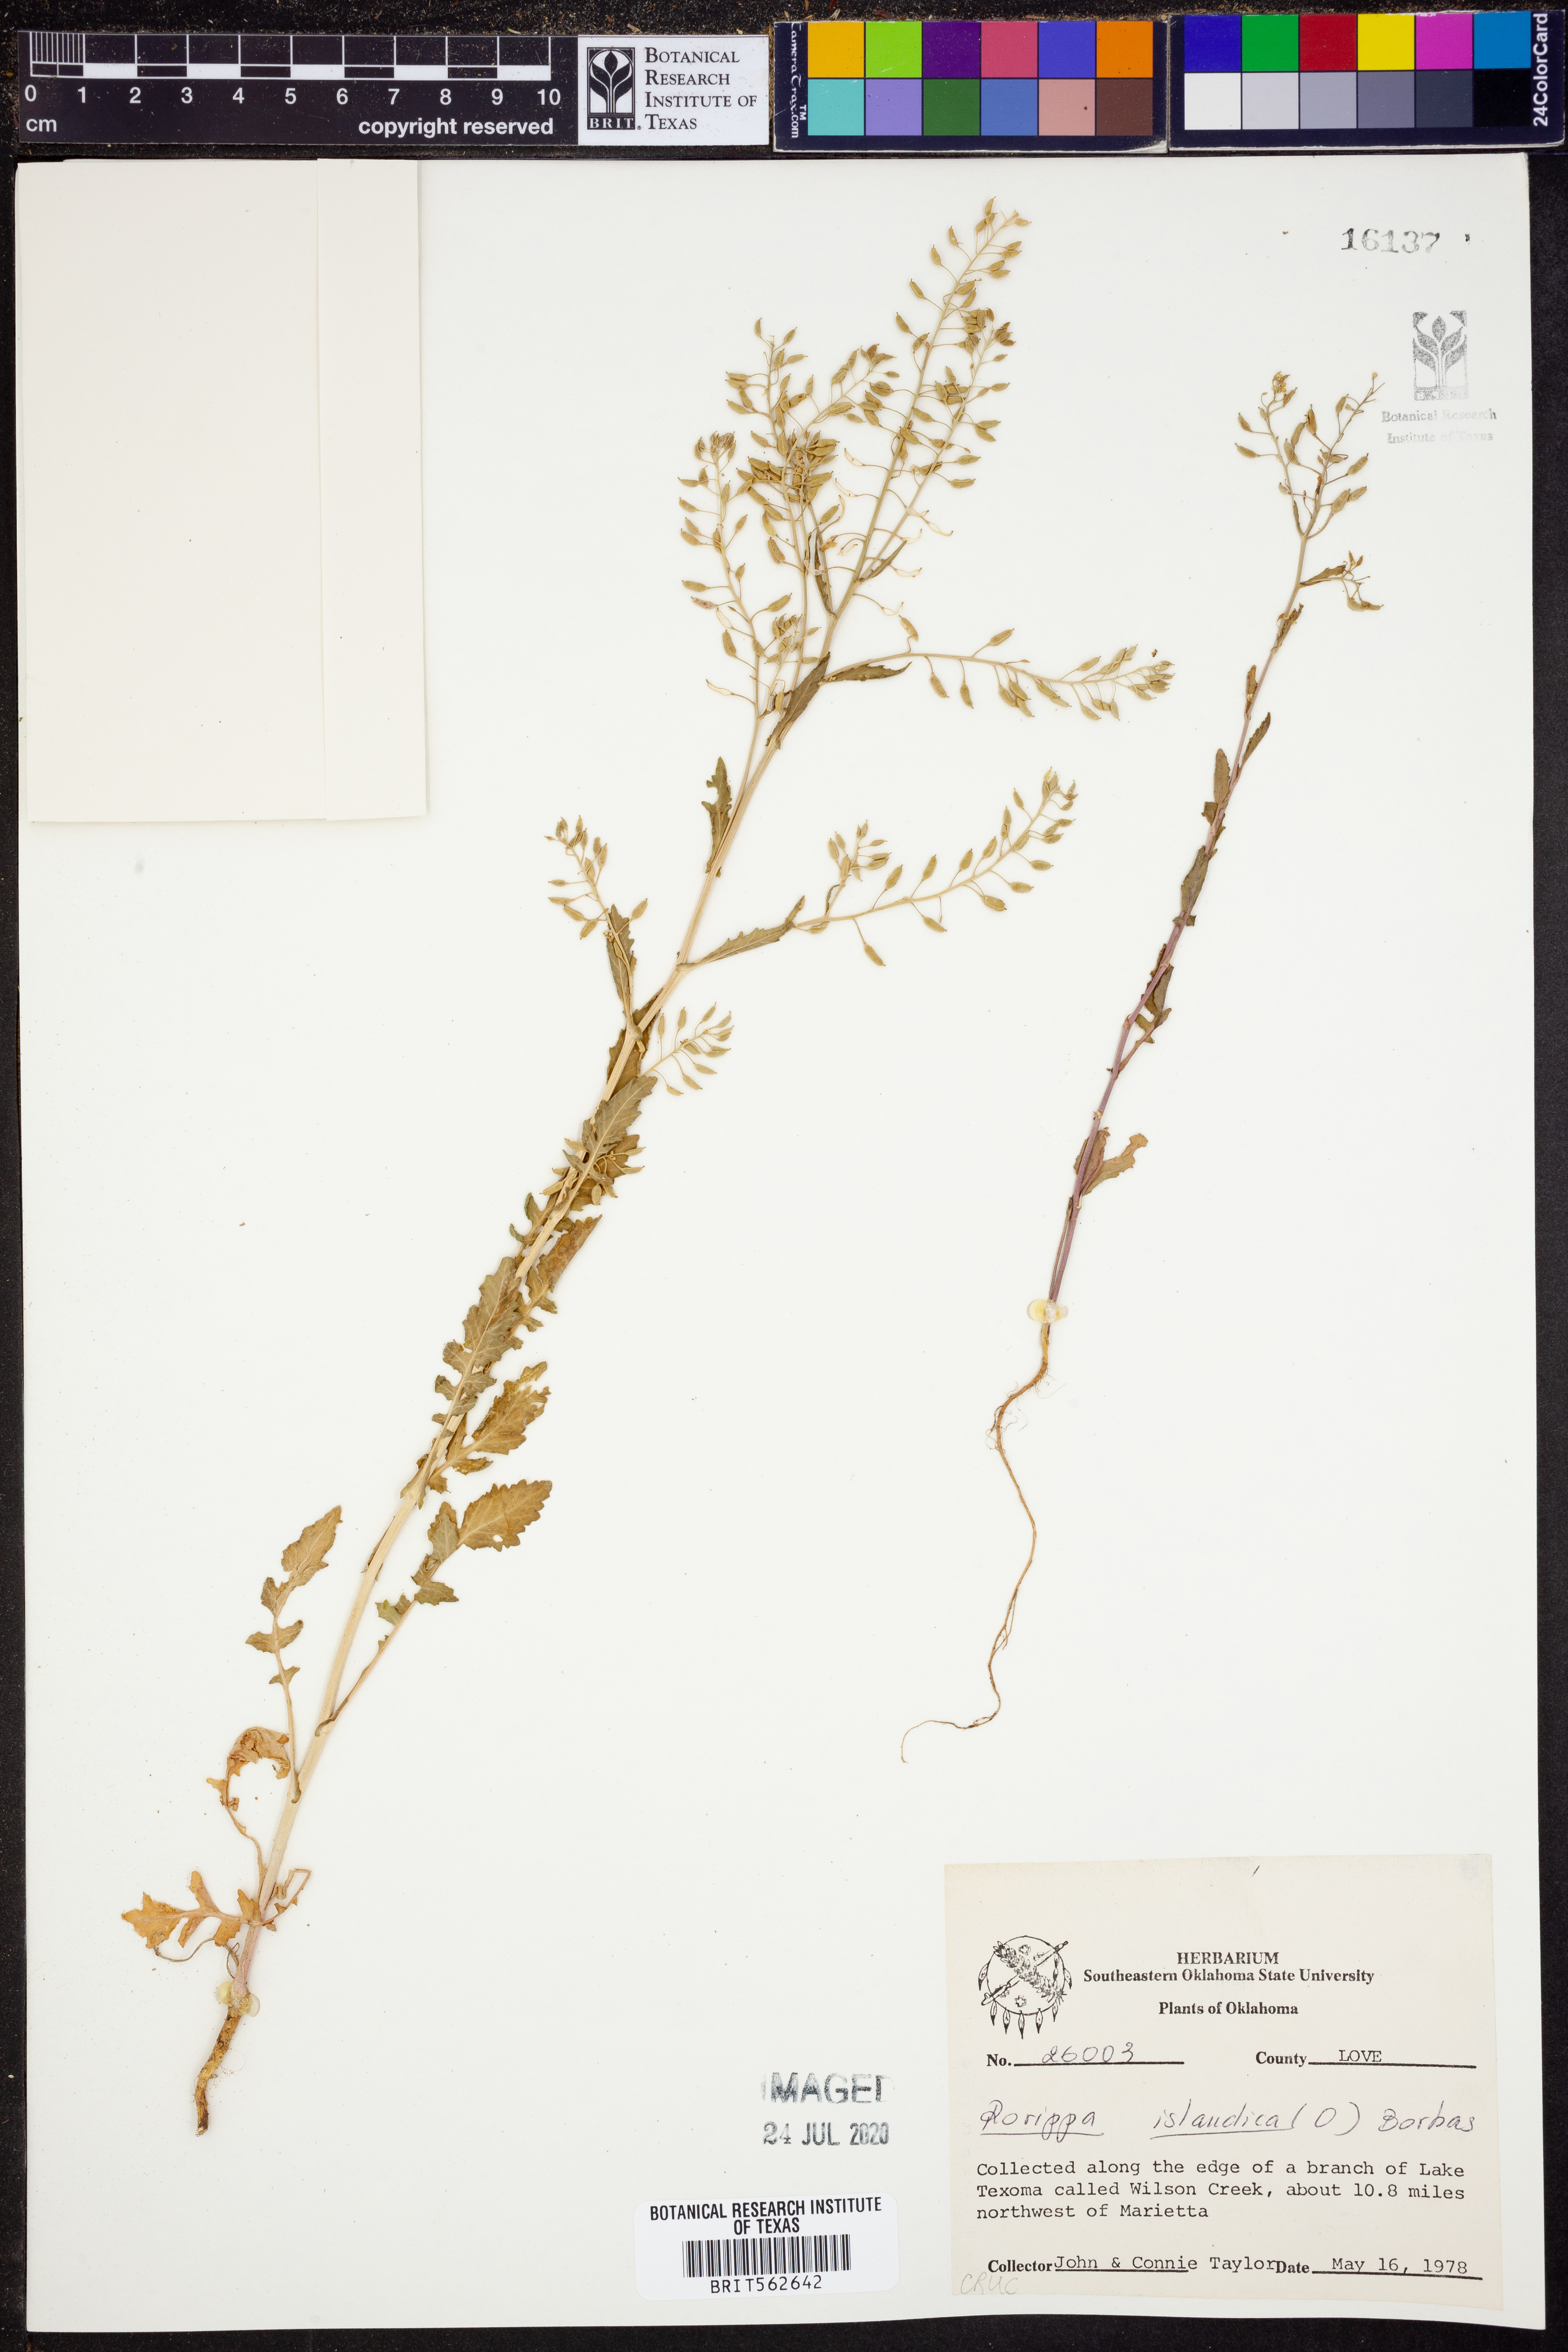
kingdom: Plantae
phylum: Tracheophyta
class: Magnoliopsida
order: Brassicales
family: Brassicaceae
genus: Rorippa
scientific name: Rorippa islandica
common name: Marsh cress
